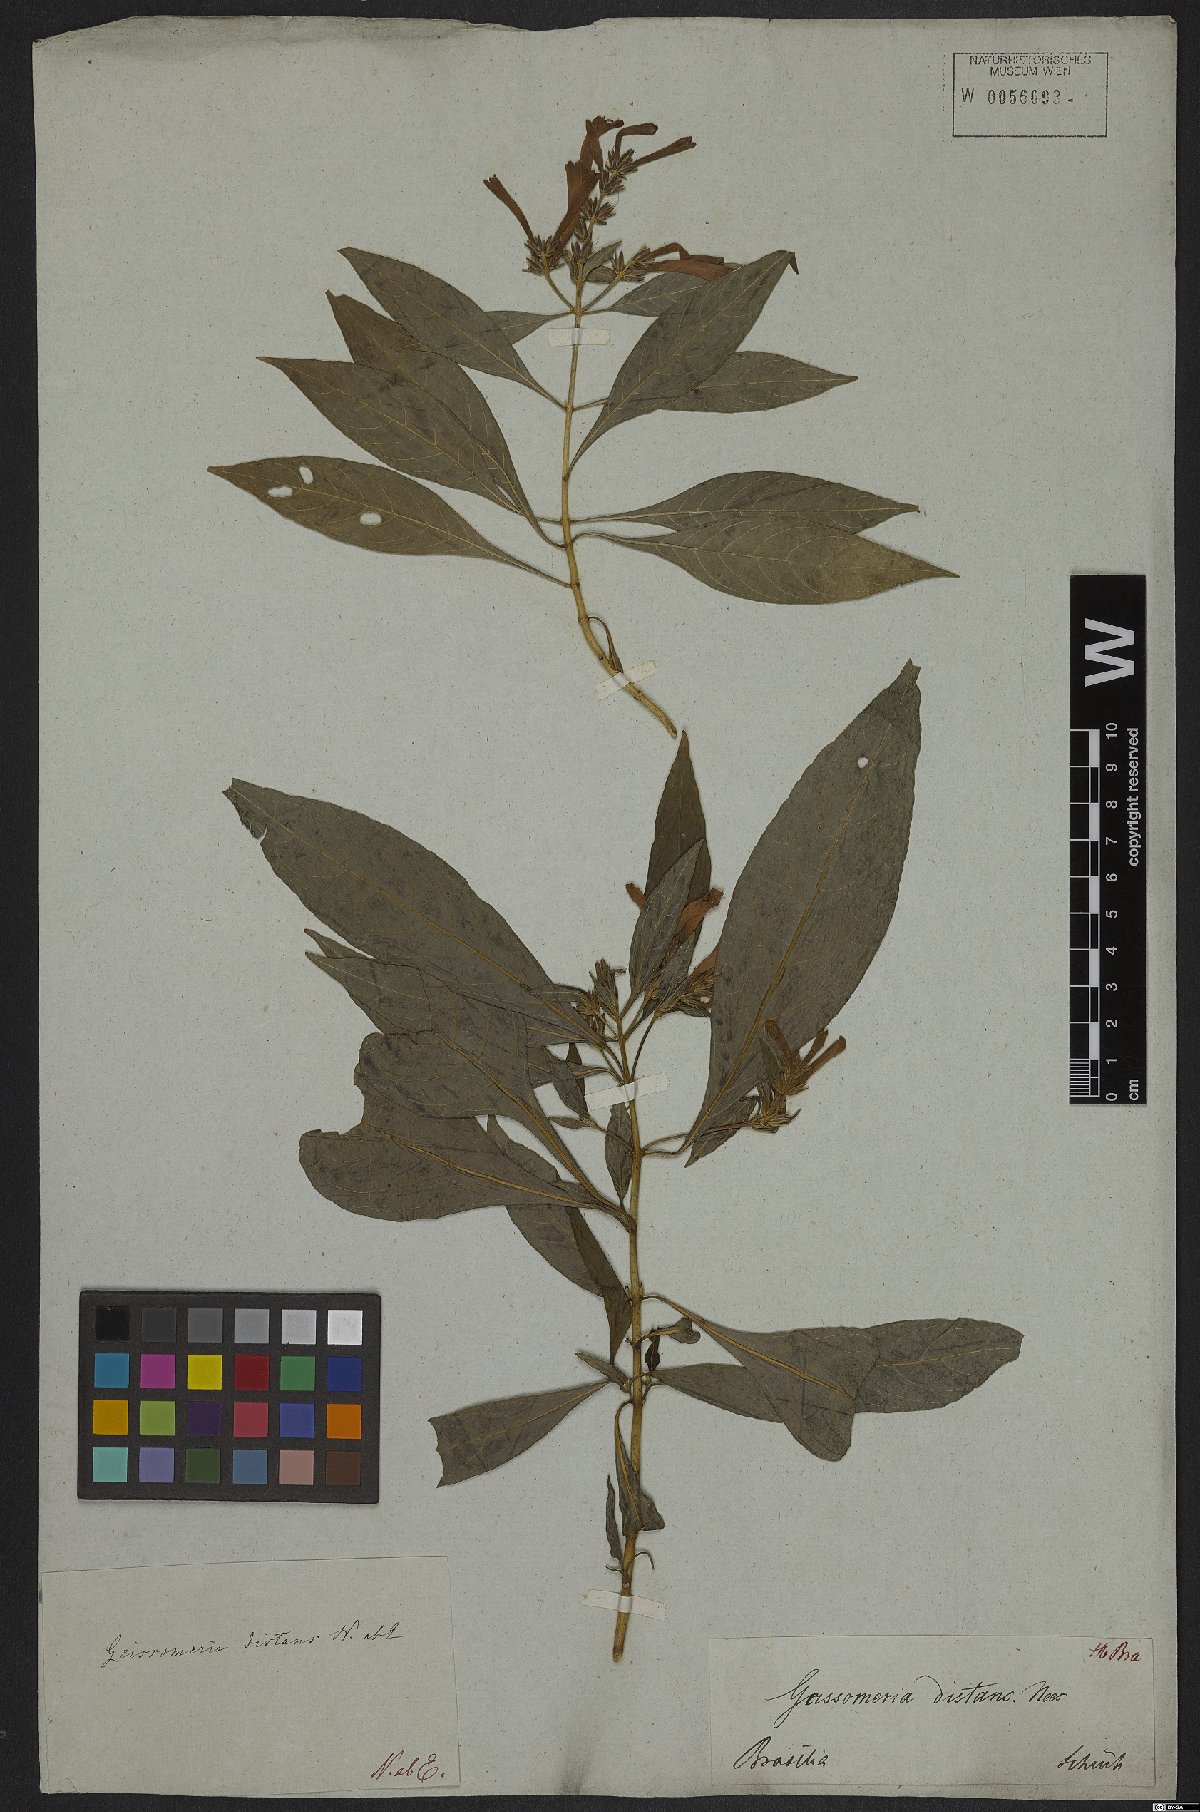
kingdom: Plantae
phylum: Tracheophyta
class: Magnoliopsida
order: Lamiales
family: Acanthaceae
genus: Aphelandra
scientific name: Aphelandra longiflora
